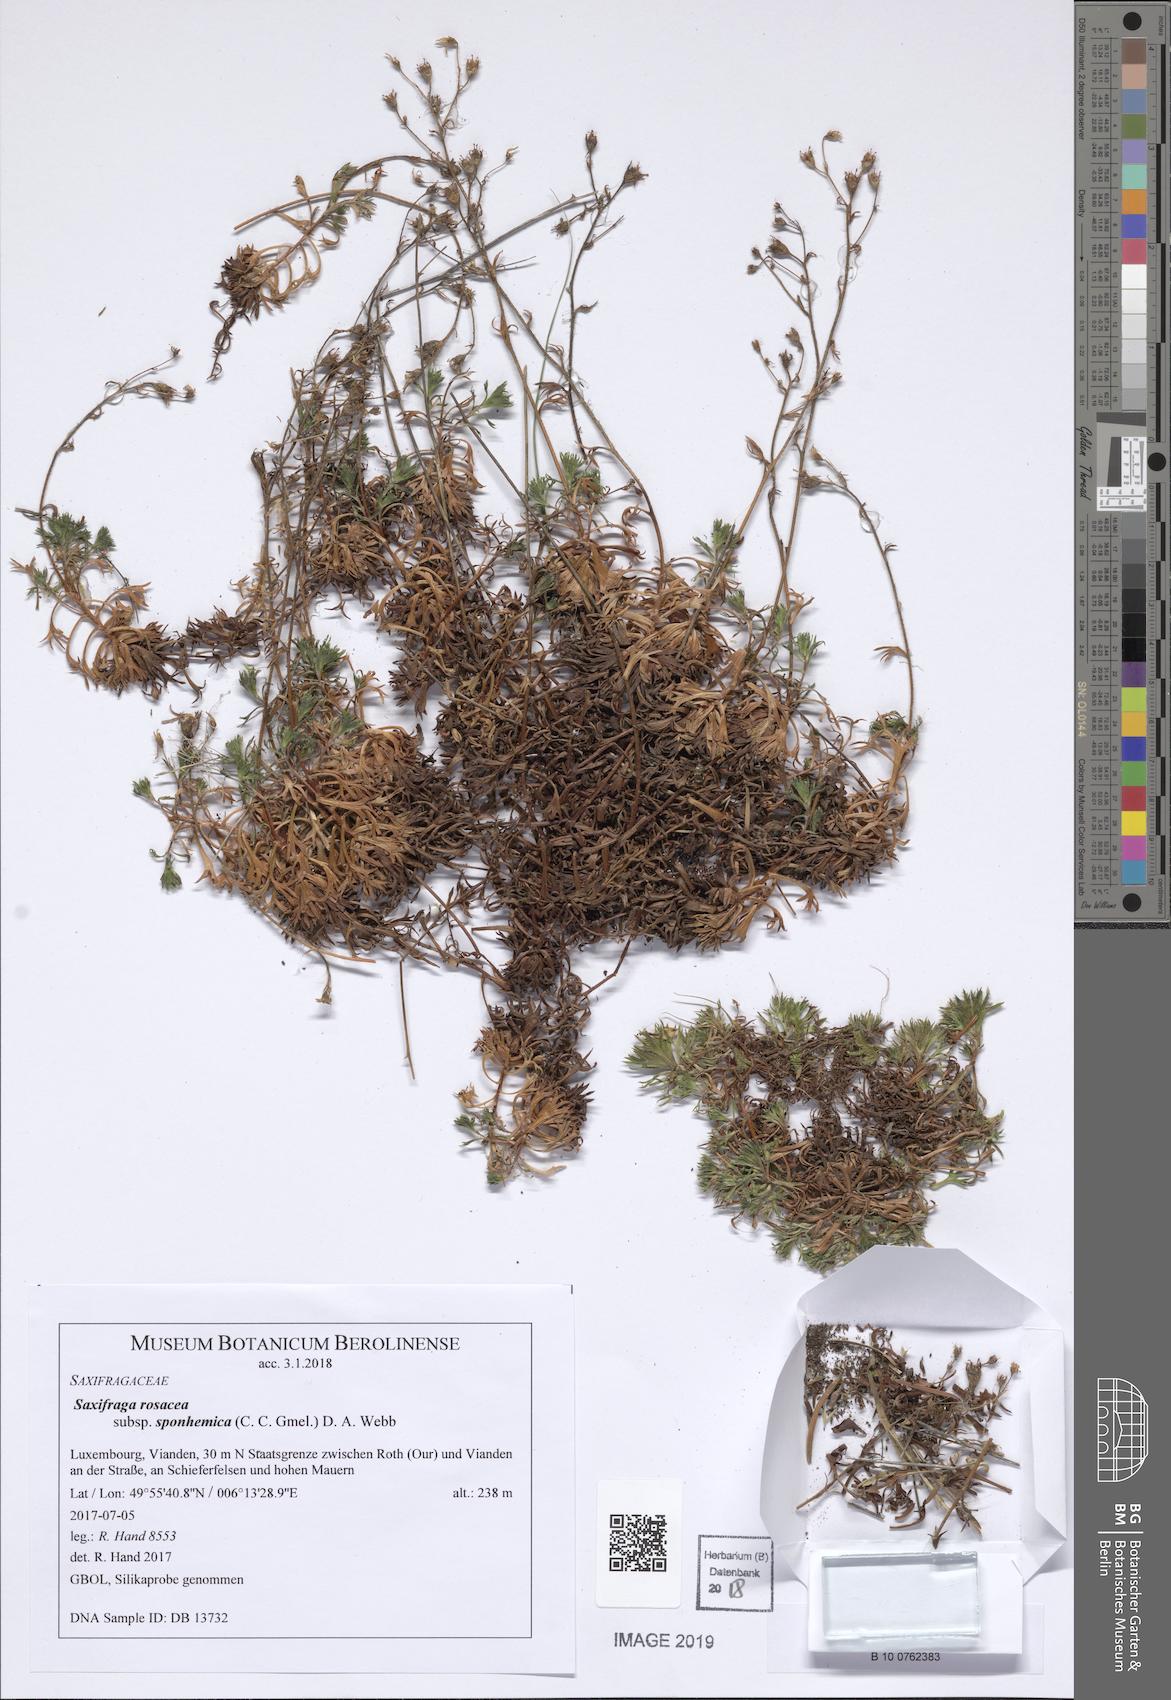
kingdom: Plantae
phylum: Tracheophyta
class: Magnoliopsida
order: Saxifragales
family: Saxifragaceae
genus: Saxifraga
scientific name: Saxifraga rosacea
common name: Irish saxifrage
